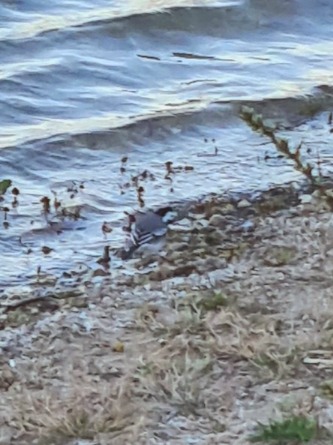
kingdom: Animalia
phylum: Chordata
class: Aves
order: Passeriformes
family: Motacillidae
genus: Motacilla
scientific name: Motacilla alba
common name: Hvid vipstjert
